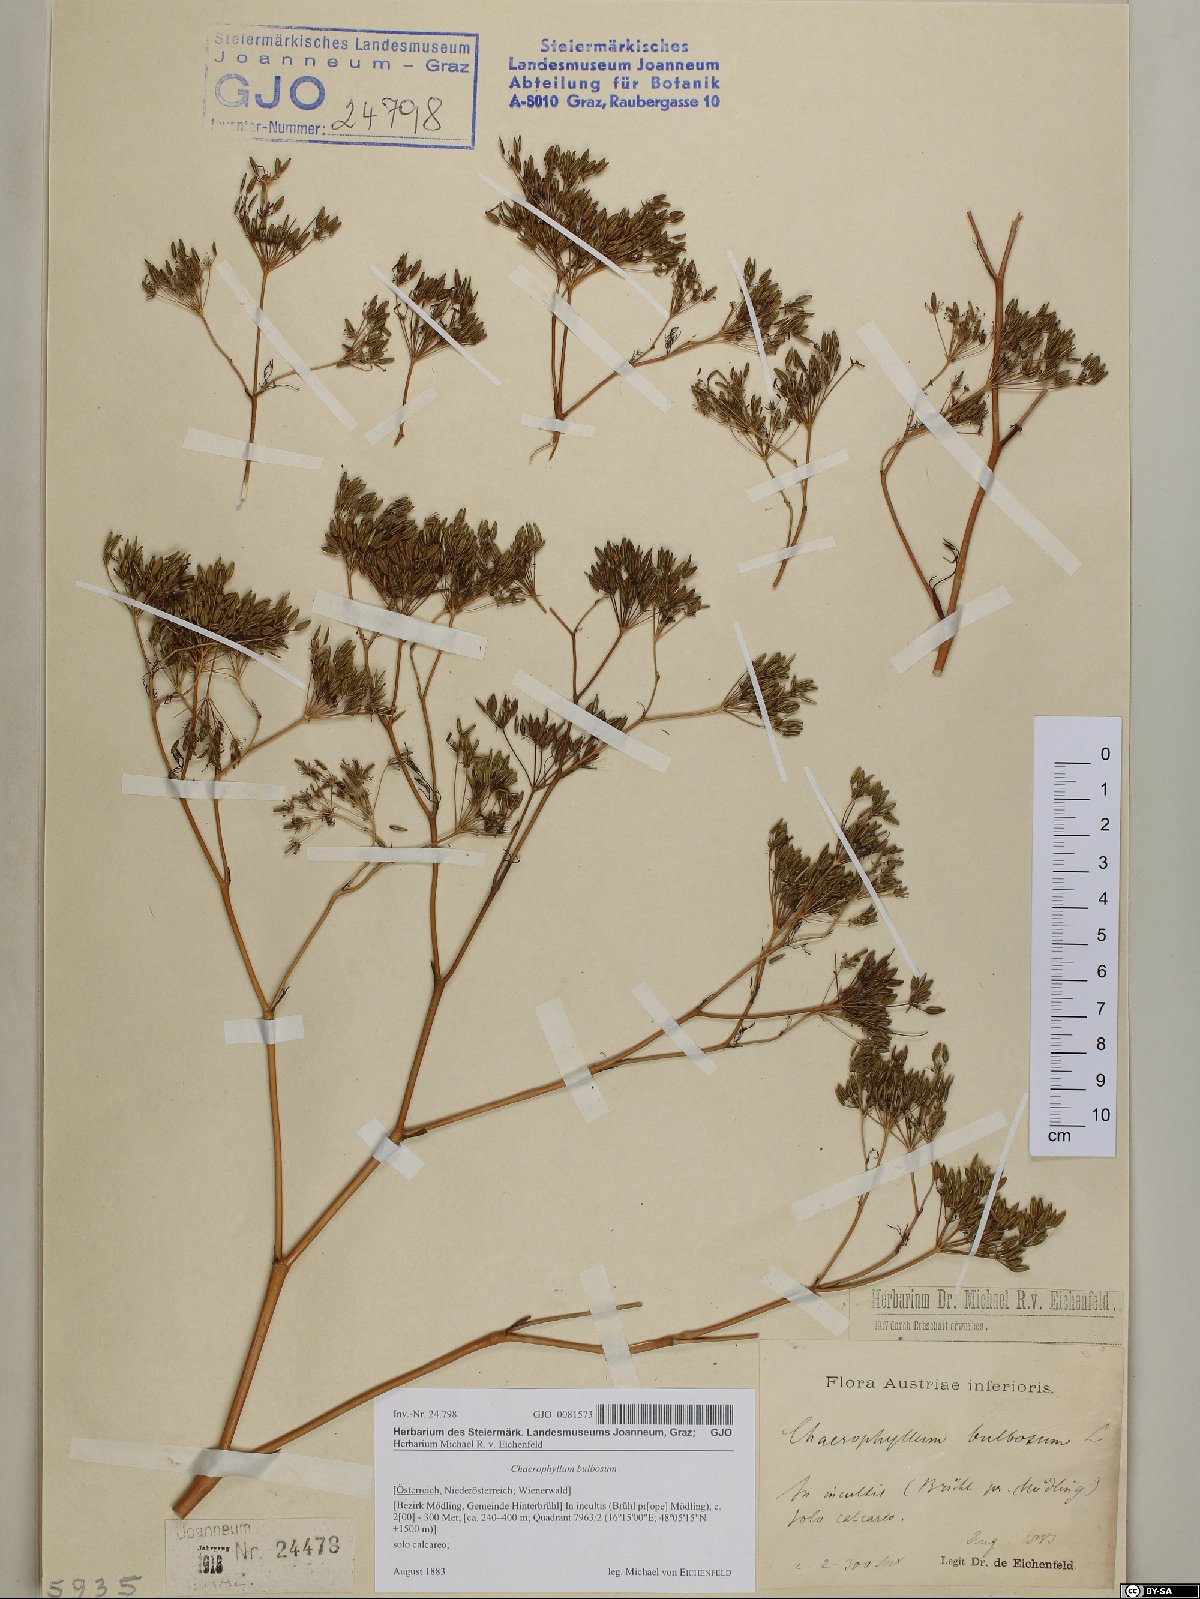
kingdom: Plantae
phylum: Tracheophyta
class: Magnoliopsida
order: Apiales
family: Apiaceae
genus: Chaerophyllum
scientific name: Chaerophyllum bulbosum
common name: Bulbous chervil
